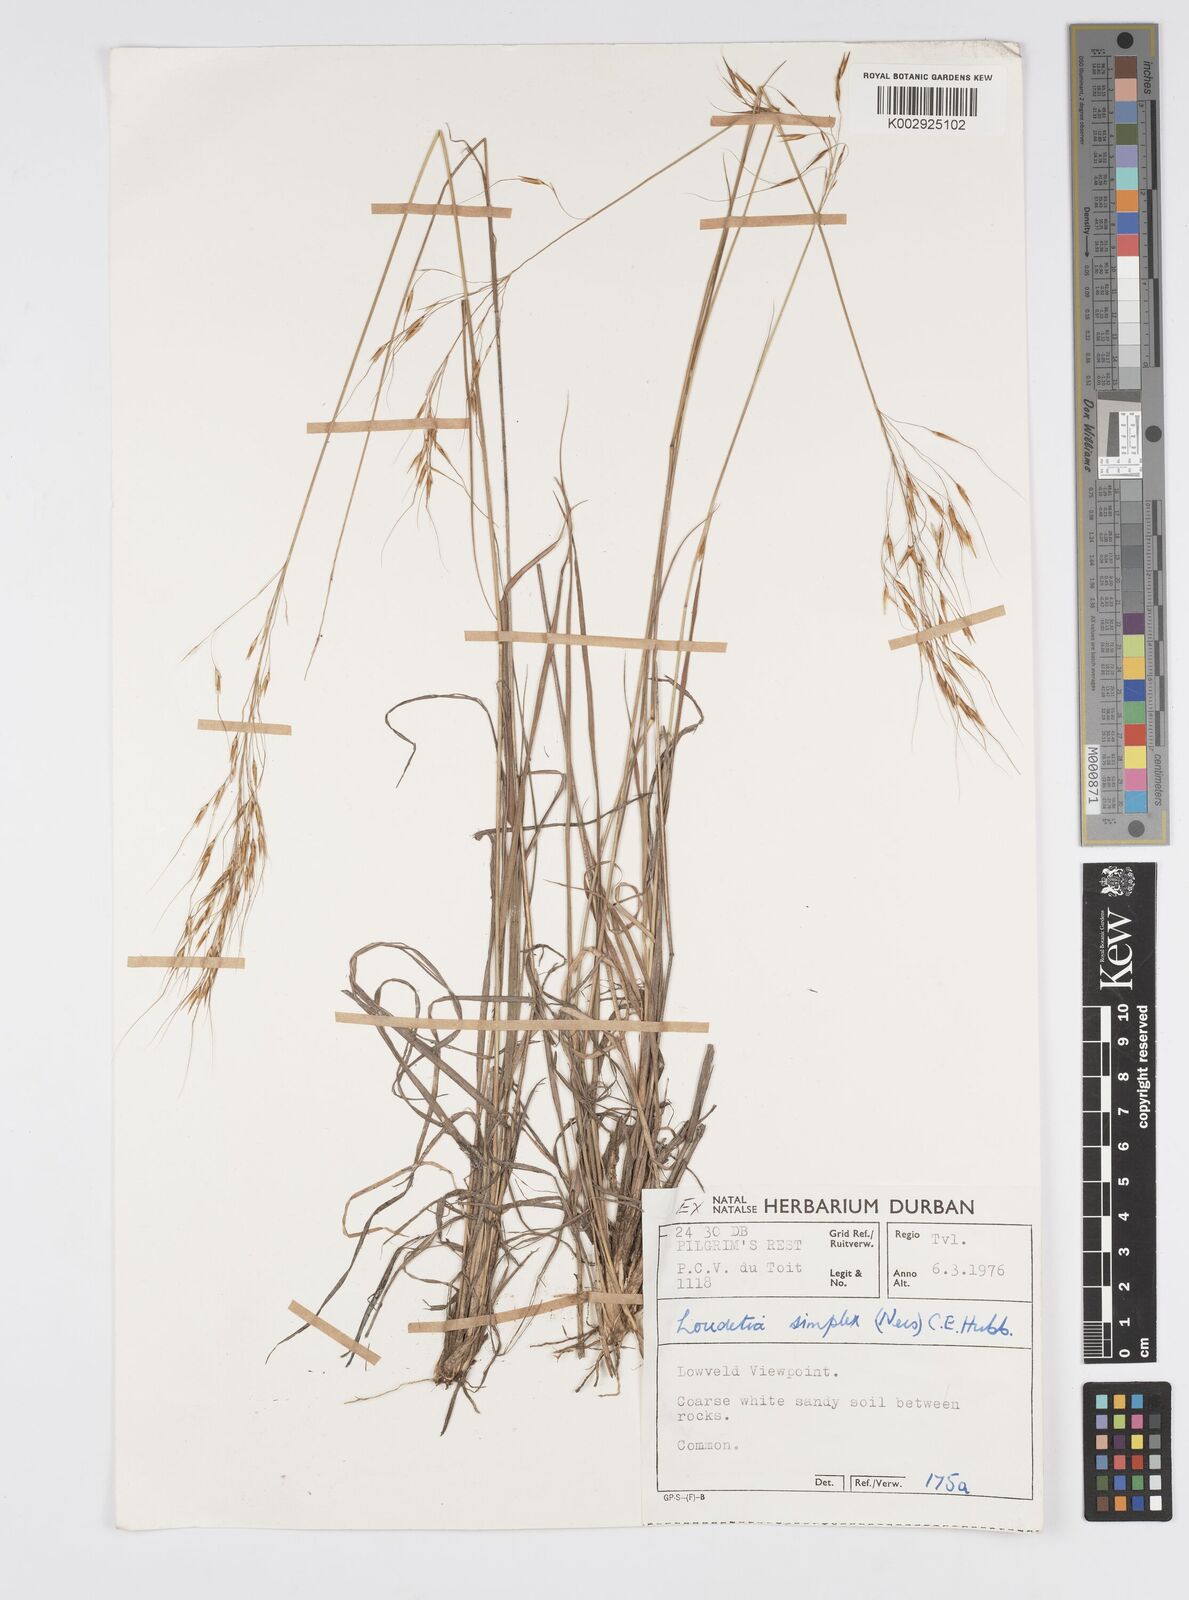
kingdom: Plantae
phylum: Tracheophyta
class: Liliopsida
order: Poales
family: Poaceae
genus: Loudetia
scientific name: Loudetia simplex
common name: Common russet grass
